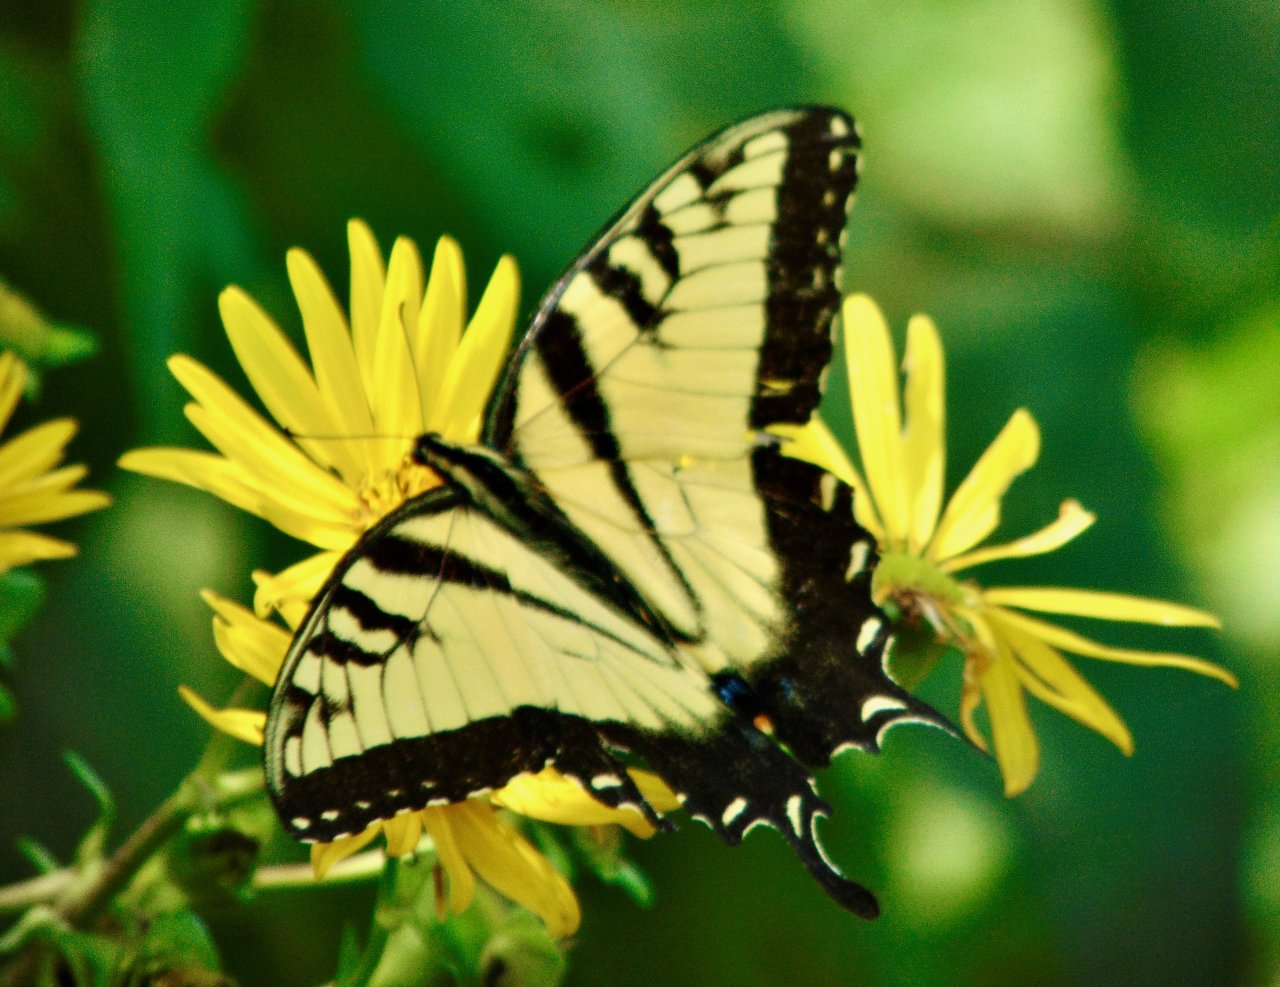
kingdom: Animalia
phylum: Arthropoda
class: Insecta
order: Lepidoptera
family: Papilionidae
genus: Pterourus
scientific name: Pterourus glaucus
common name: Eastern Tiger Swallowtail
